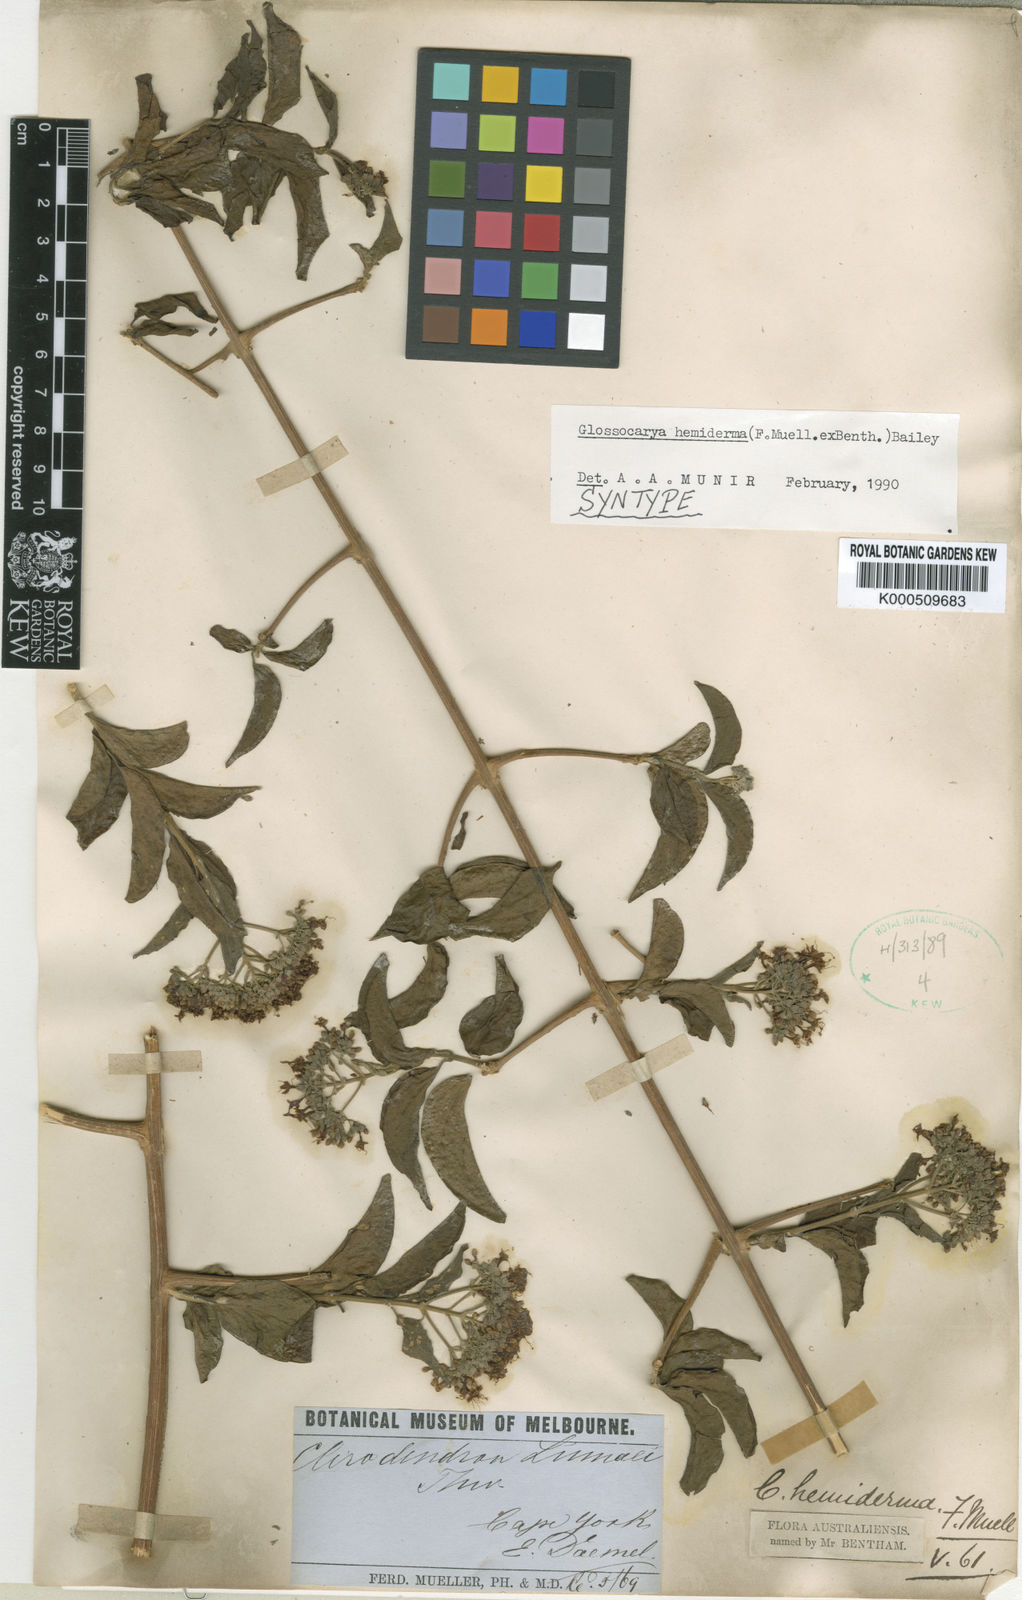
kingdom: Plantae
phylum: Tracheophyta
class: Magnoliopsida
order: Lamiales
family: Lamiaceae
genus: Glossocarya
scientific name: Glossocarya
